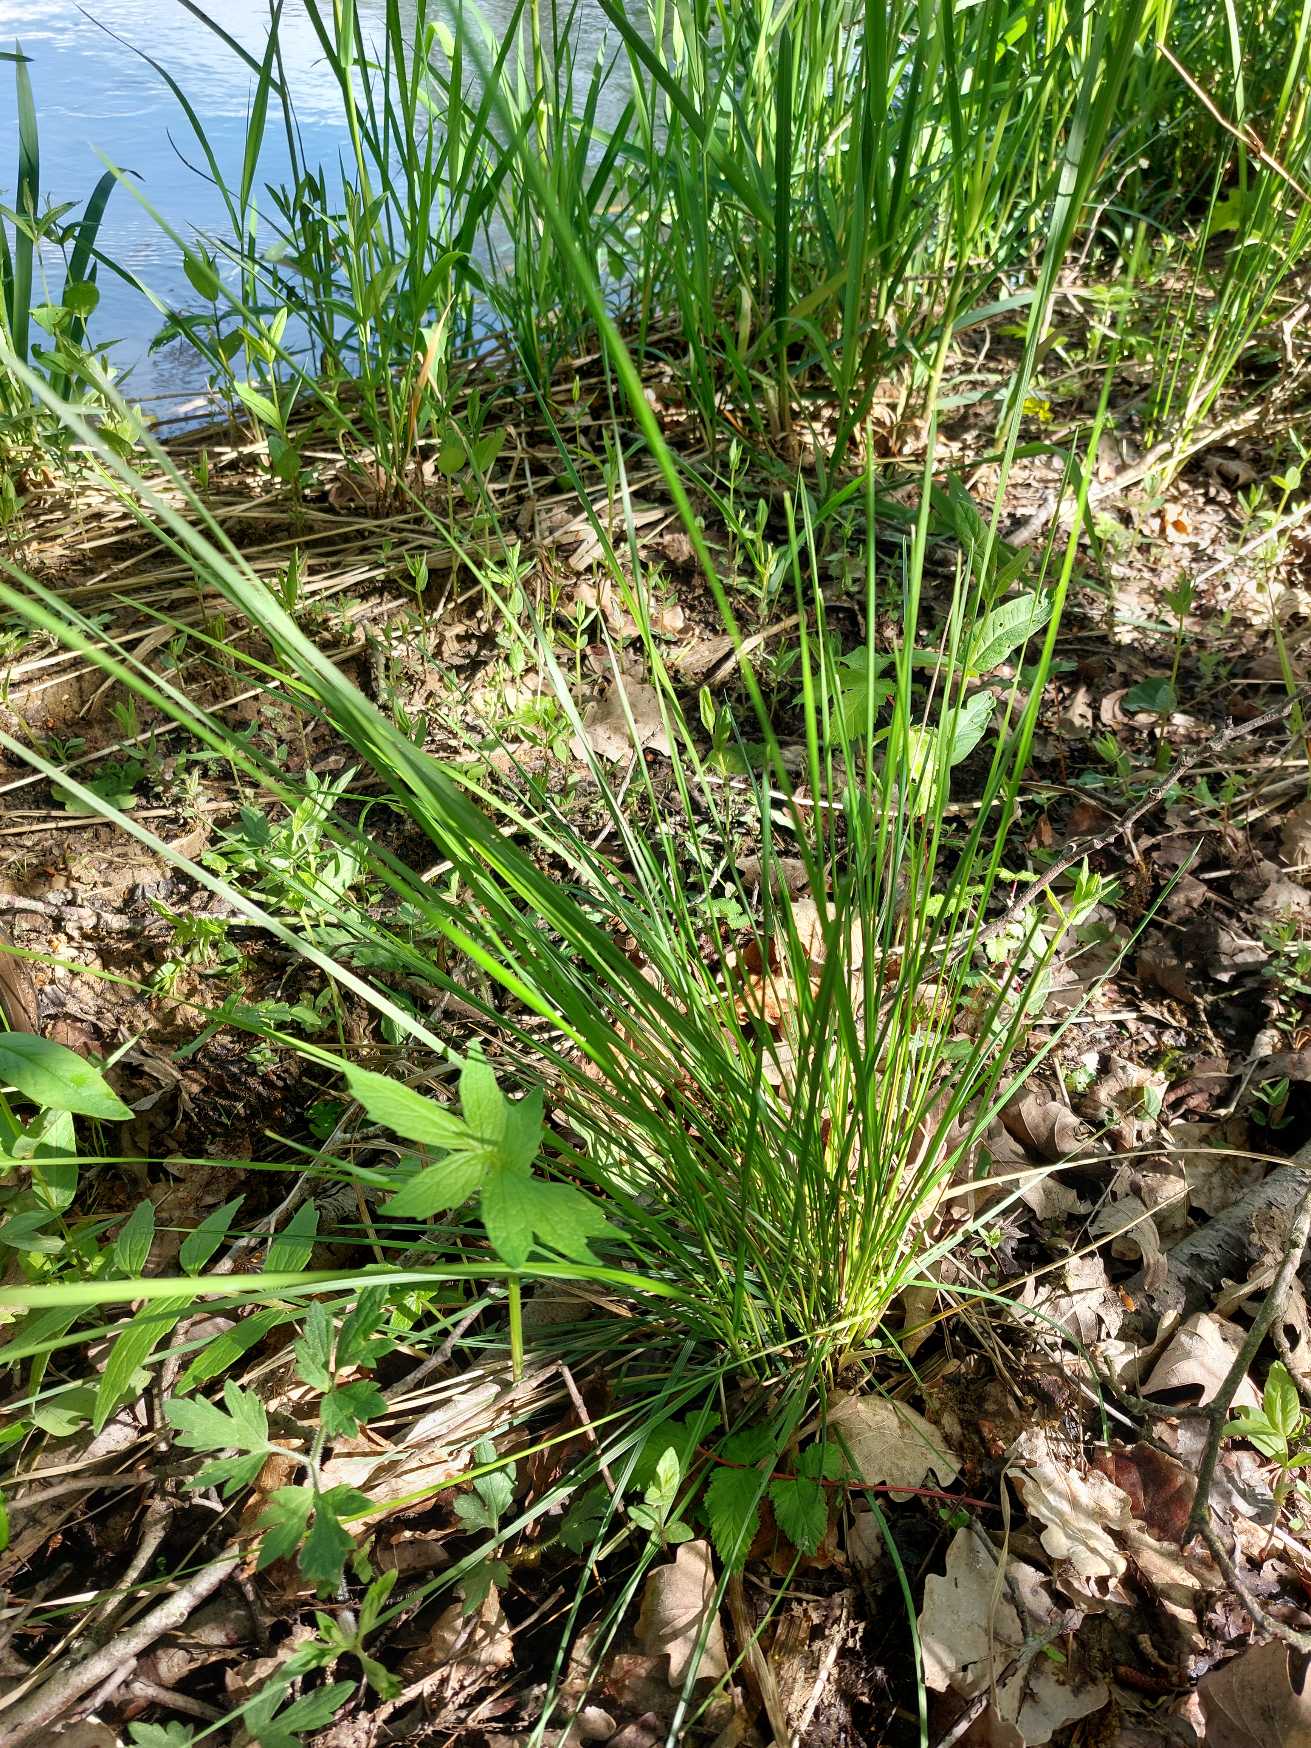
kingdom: Plantae
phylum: Tracheophyta
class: Liliopsida
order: Poales
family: Poaceae
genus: Deschampsia
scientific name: Deschampsia cespitosa
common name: Mose-bunke
